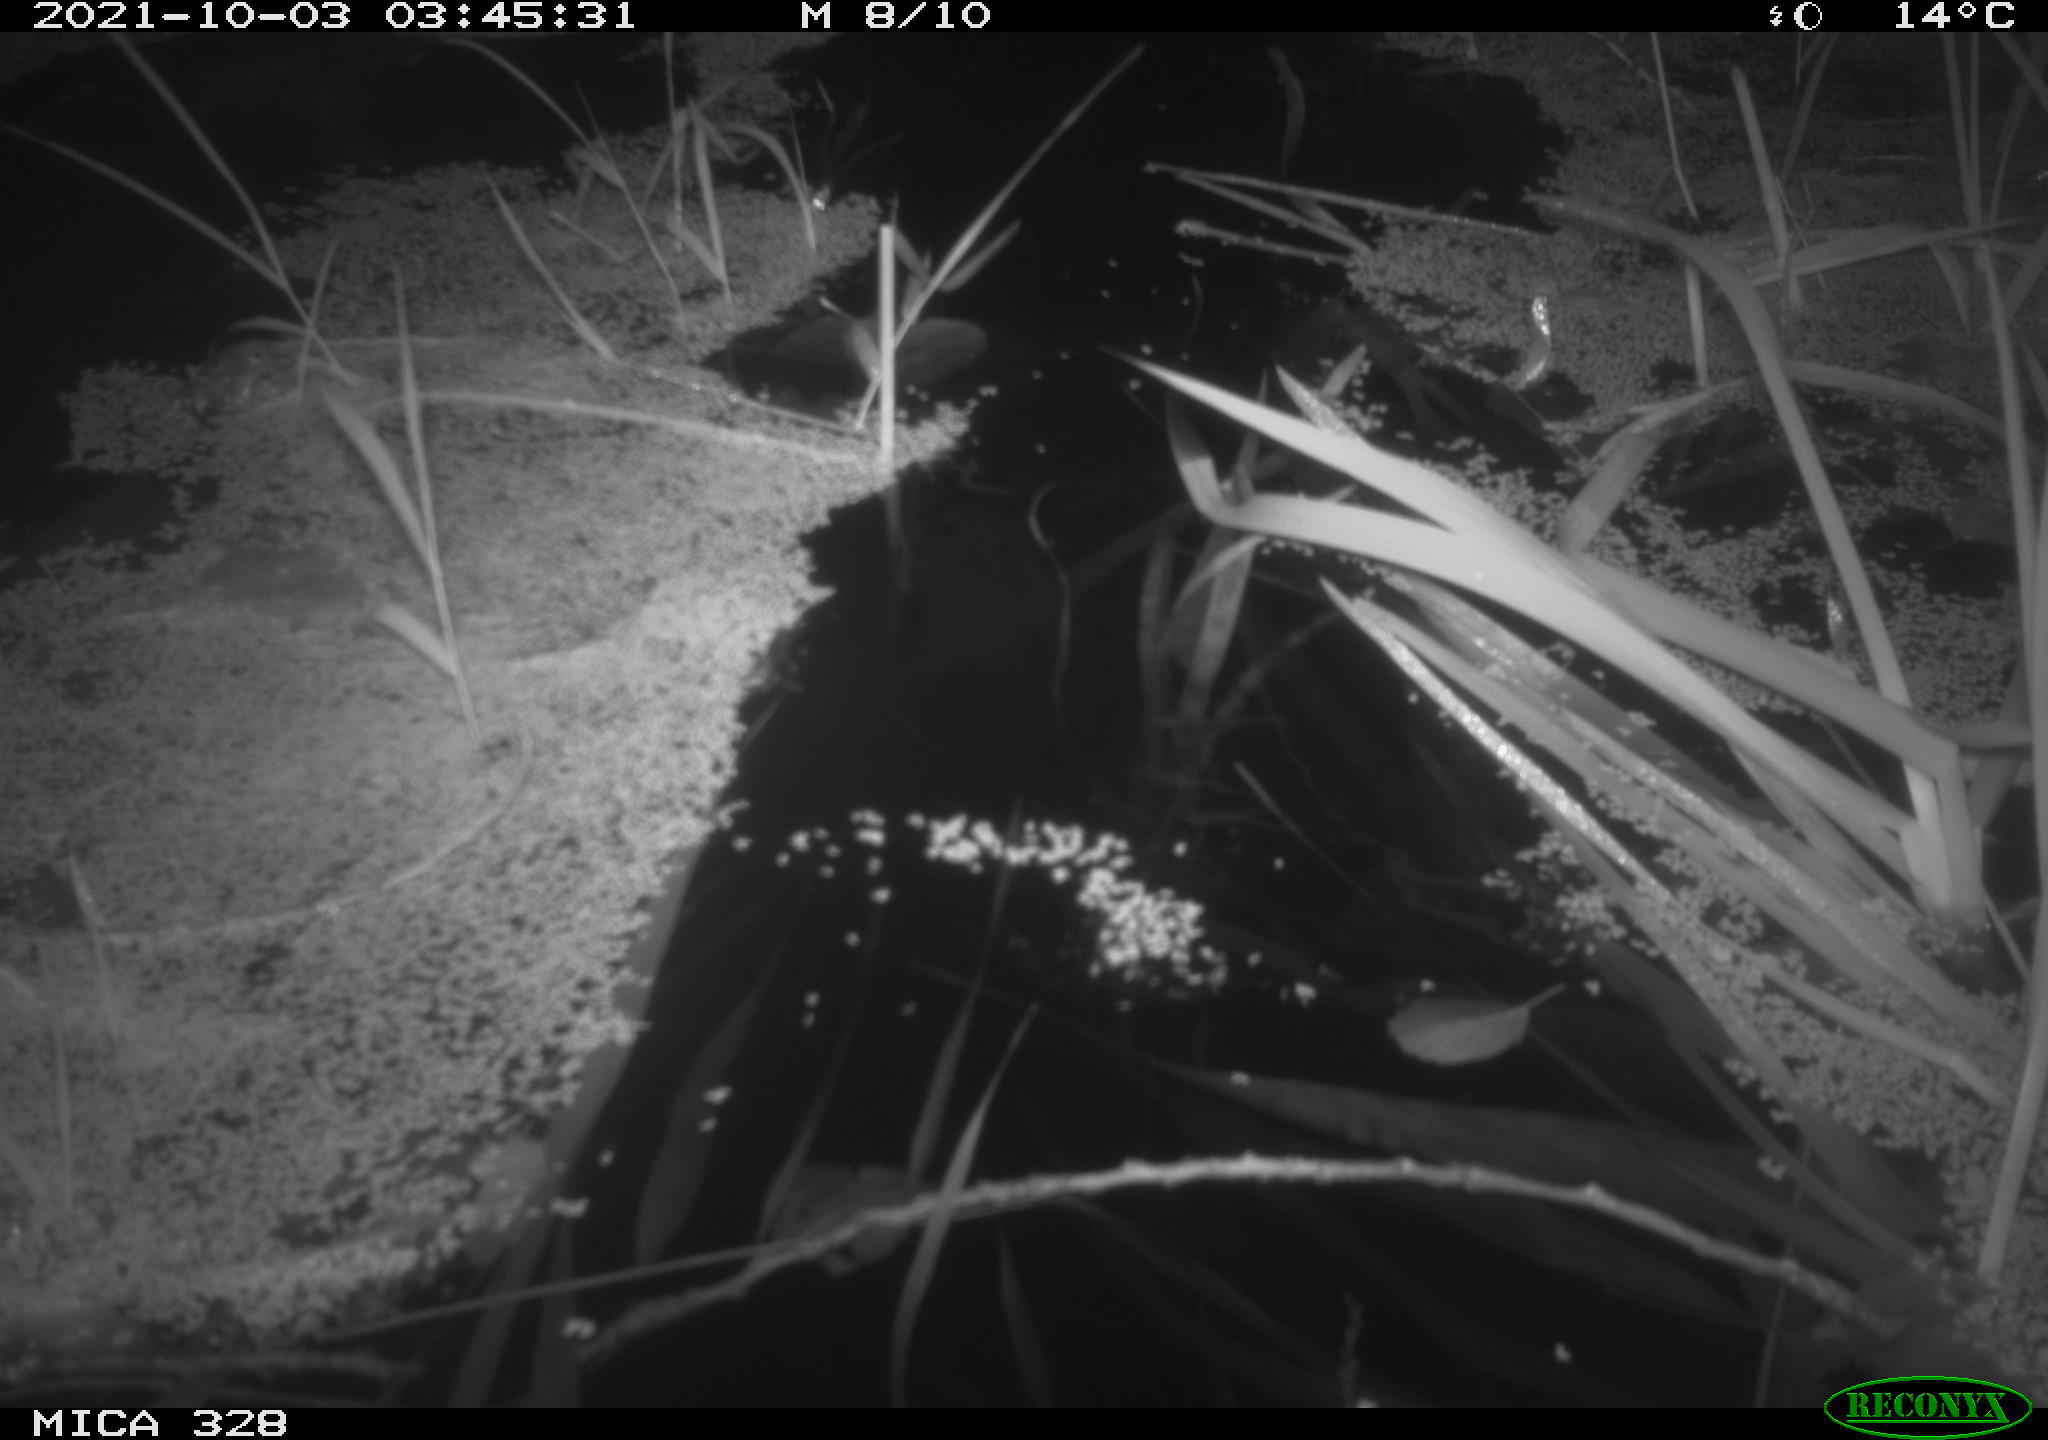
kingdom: Animalia
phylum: Chordata
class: Mammalia
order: Rodentia
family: Cricetidae
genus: Ondatra
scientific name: Ondatra zibethicus
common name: Muskrat
